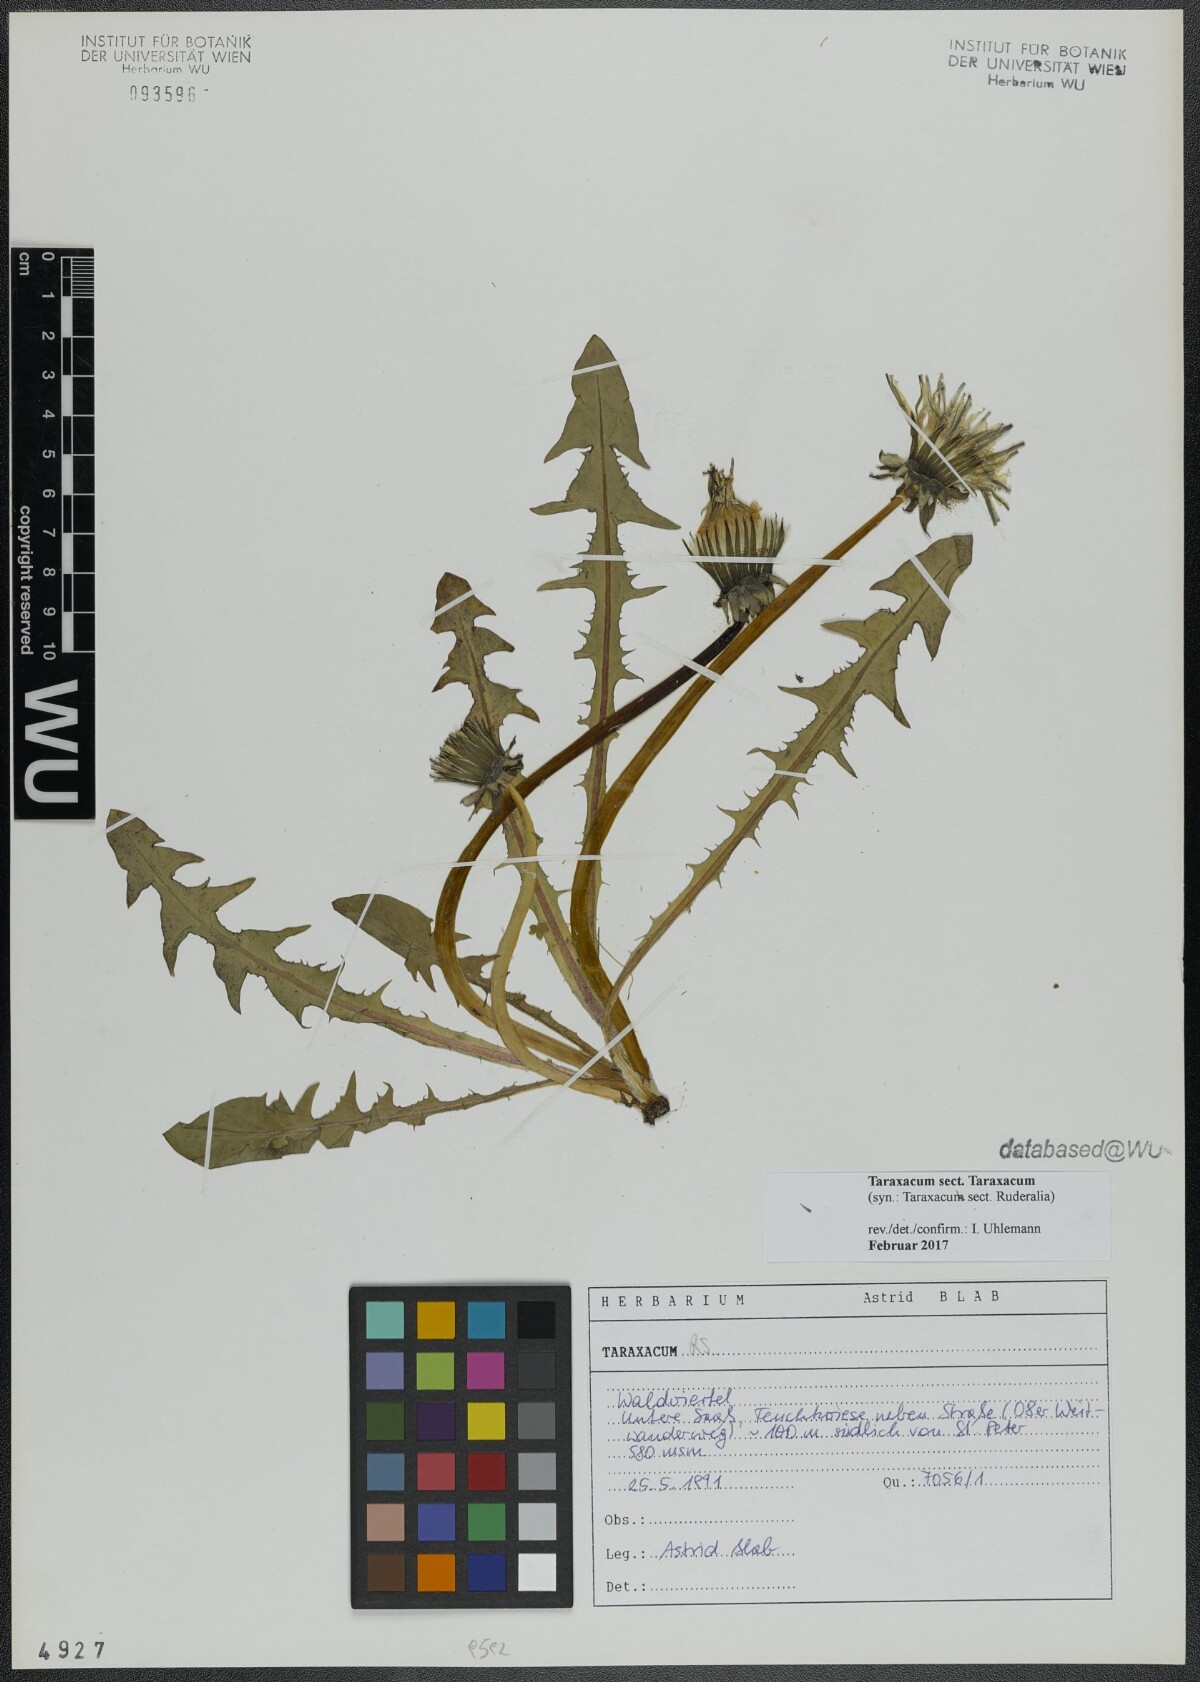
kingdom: Plantae
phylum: Tracheophyta
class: Magnoliopsida
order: Asterales
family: Asteraceae
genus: Taraxacum
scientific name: Taraxacum
